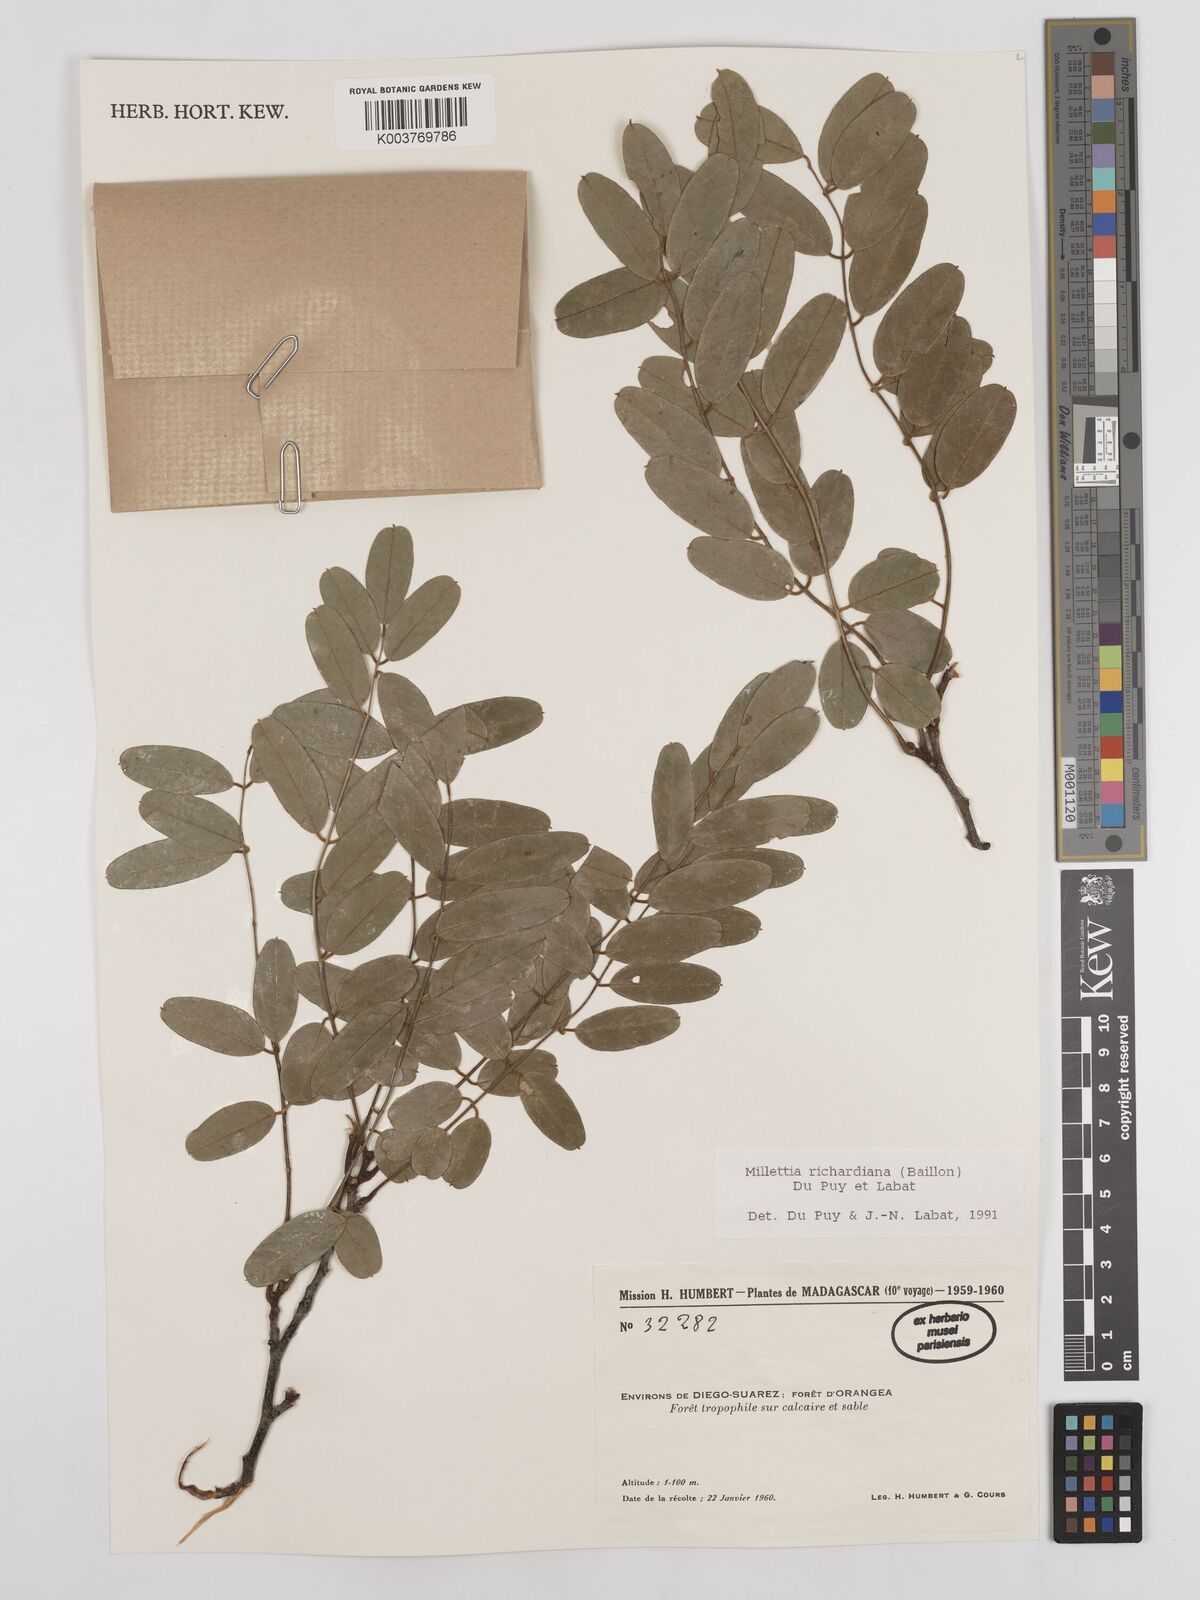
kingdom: Plantae
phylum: Tracheophyta
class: Magnoliopsida
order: Fabales
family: Fabaceae
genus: Millettia
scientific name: Millettia richardiana
